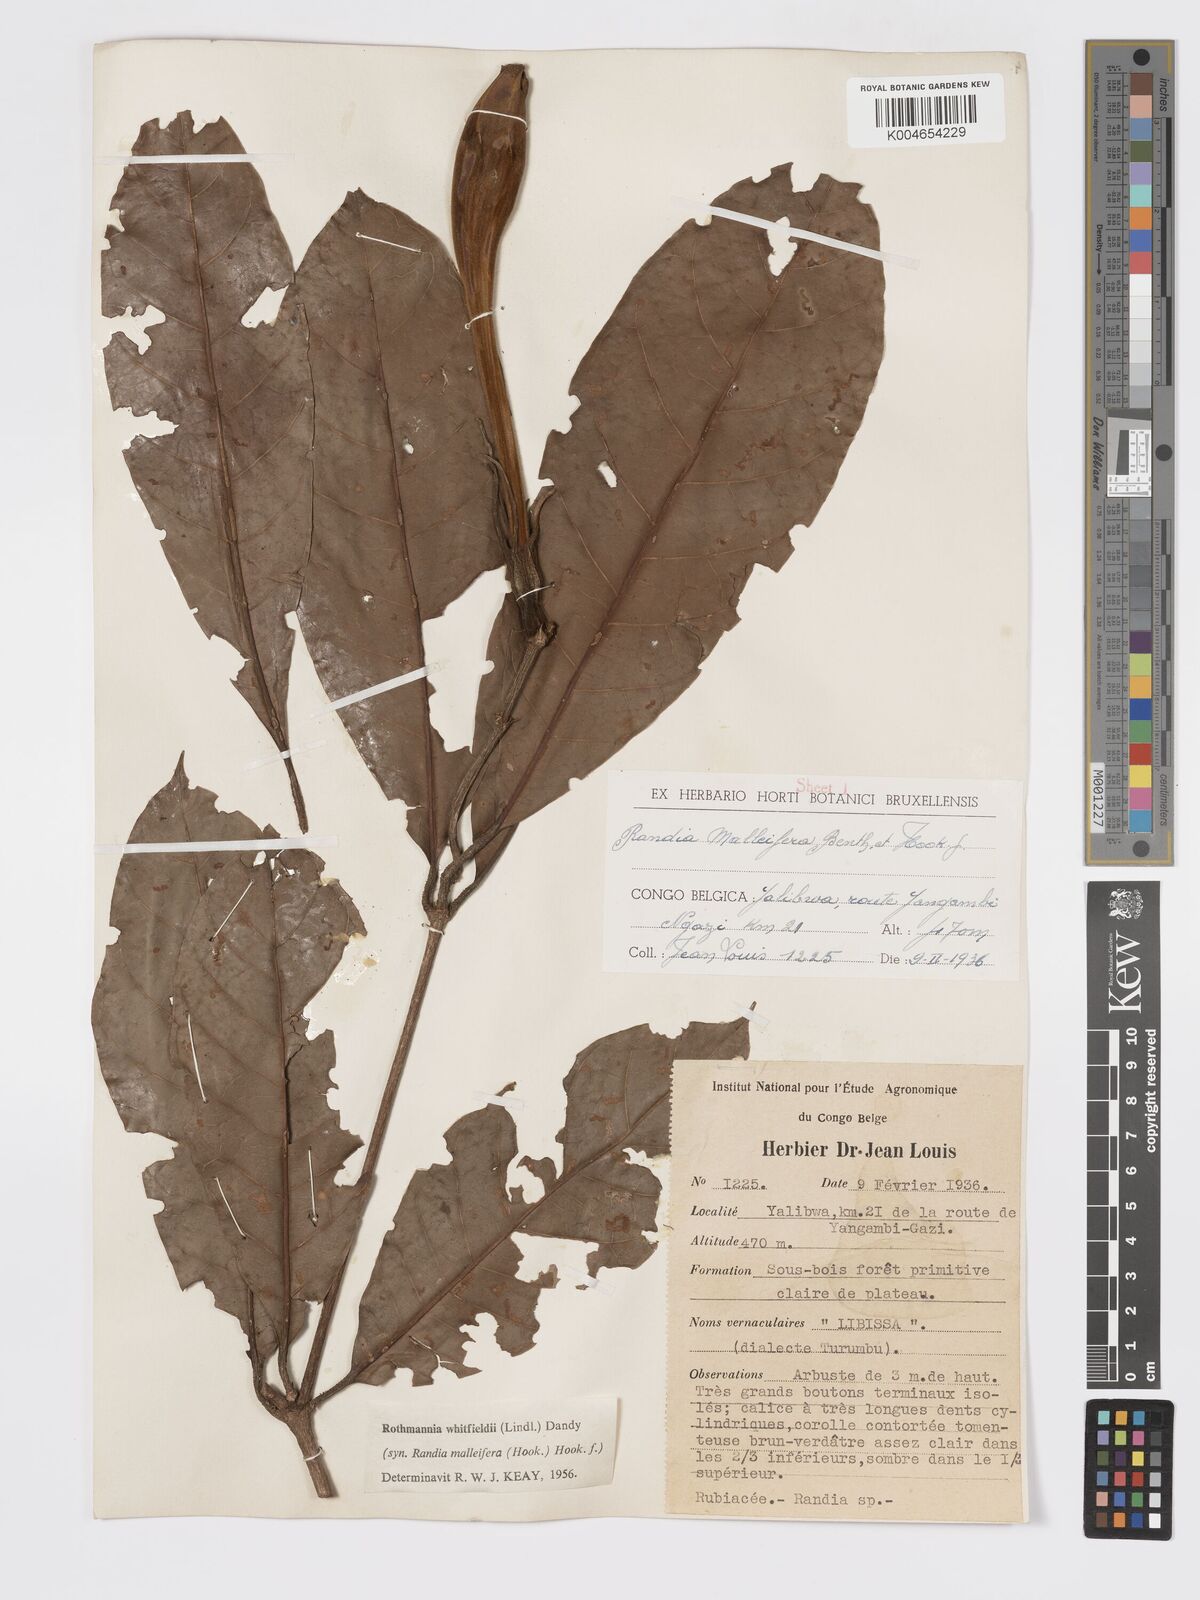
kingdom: Plantae
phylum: Tracheophyta
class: Magnoliopsida
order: Gentianales
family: Rubiaceae
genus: Rothmannia
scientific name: Rothmannia whitfieldii
